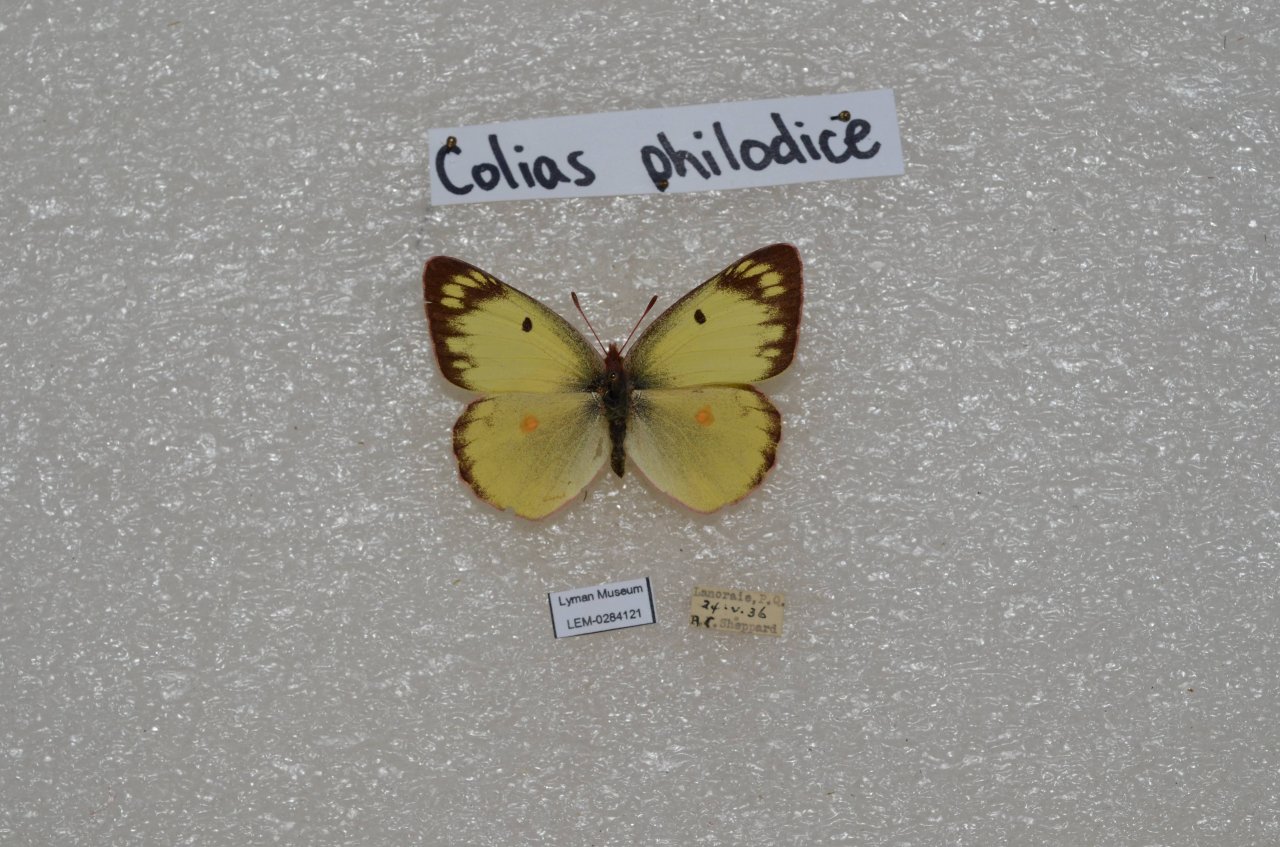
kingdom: Animalia
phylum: Arthropoda
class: Insecta
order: Lepidoptera
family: Pieridae
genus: Colias
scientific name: Colias philodice
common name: Clouded Sulphur
